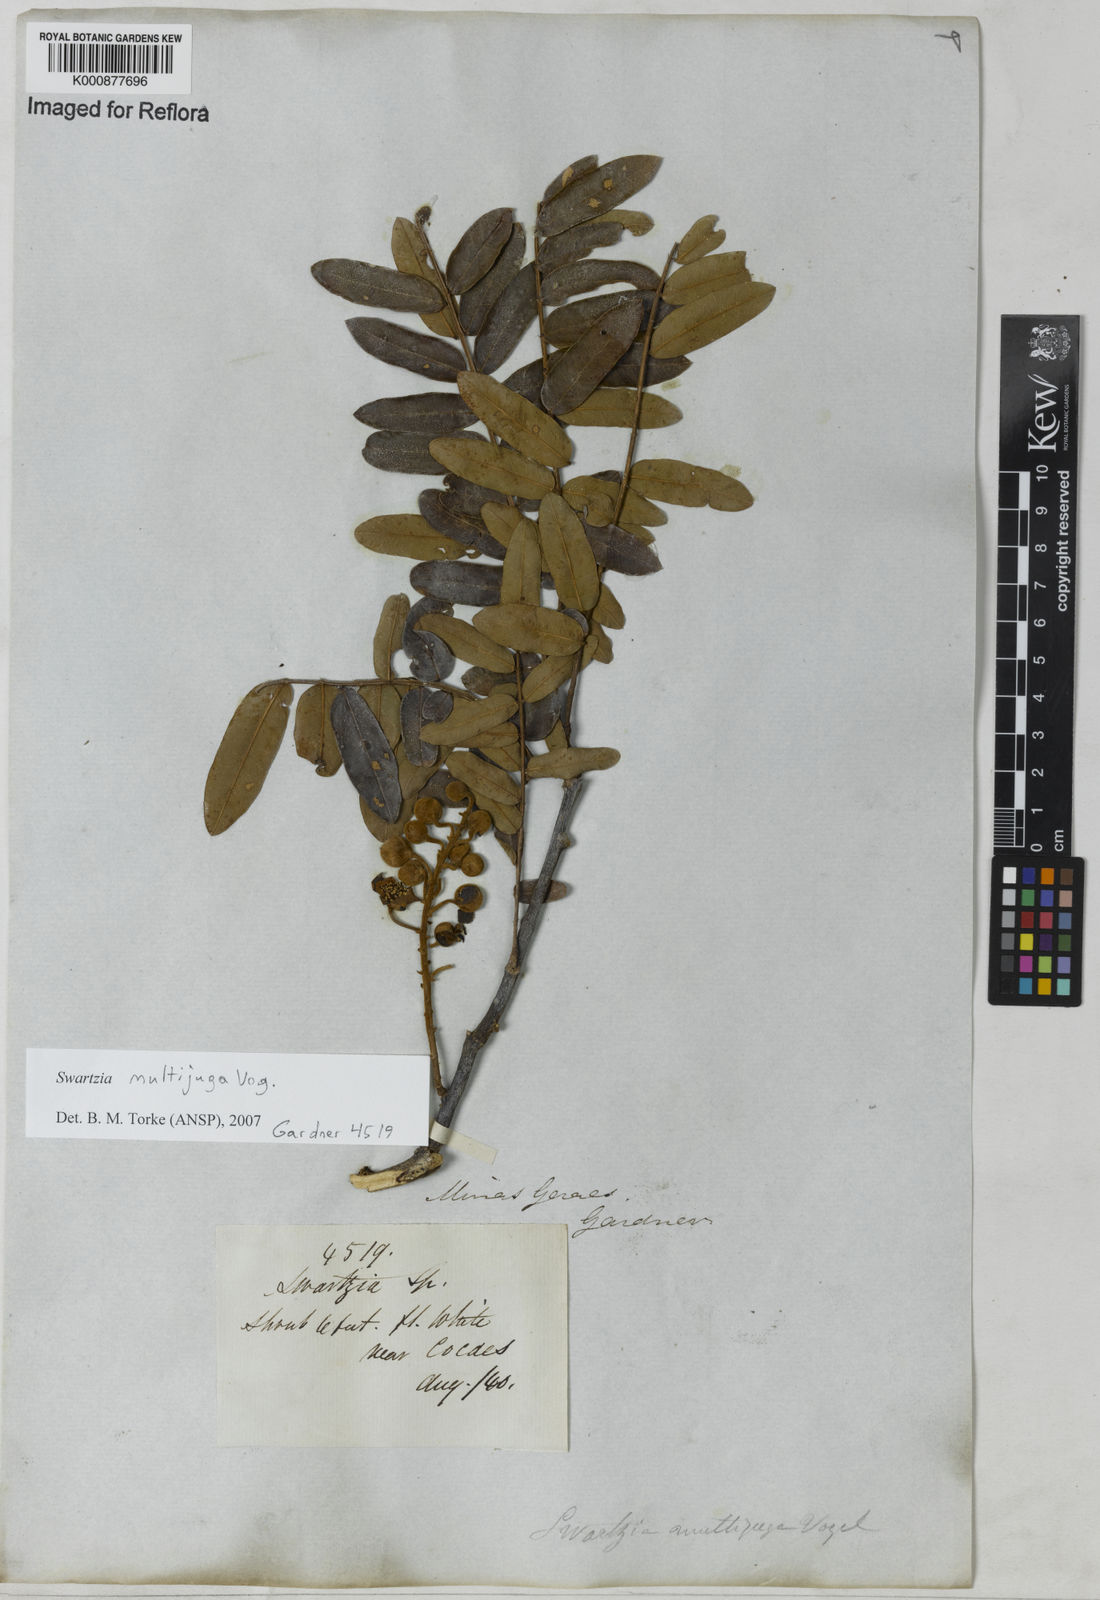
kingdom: Plantae
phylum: Tracheophyta
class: Magnoliopsida
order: Fabales
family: Fabaceae
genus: Swartzia
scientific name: Swartzia multijuga
